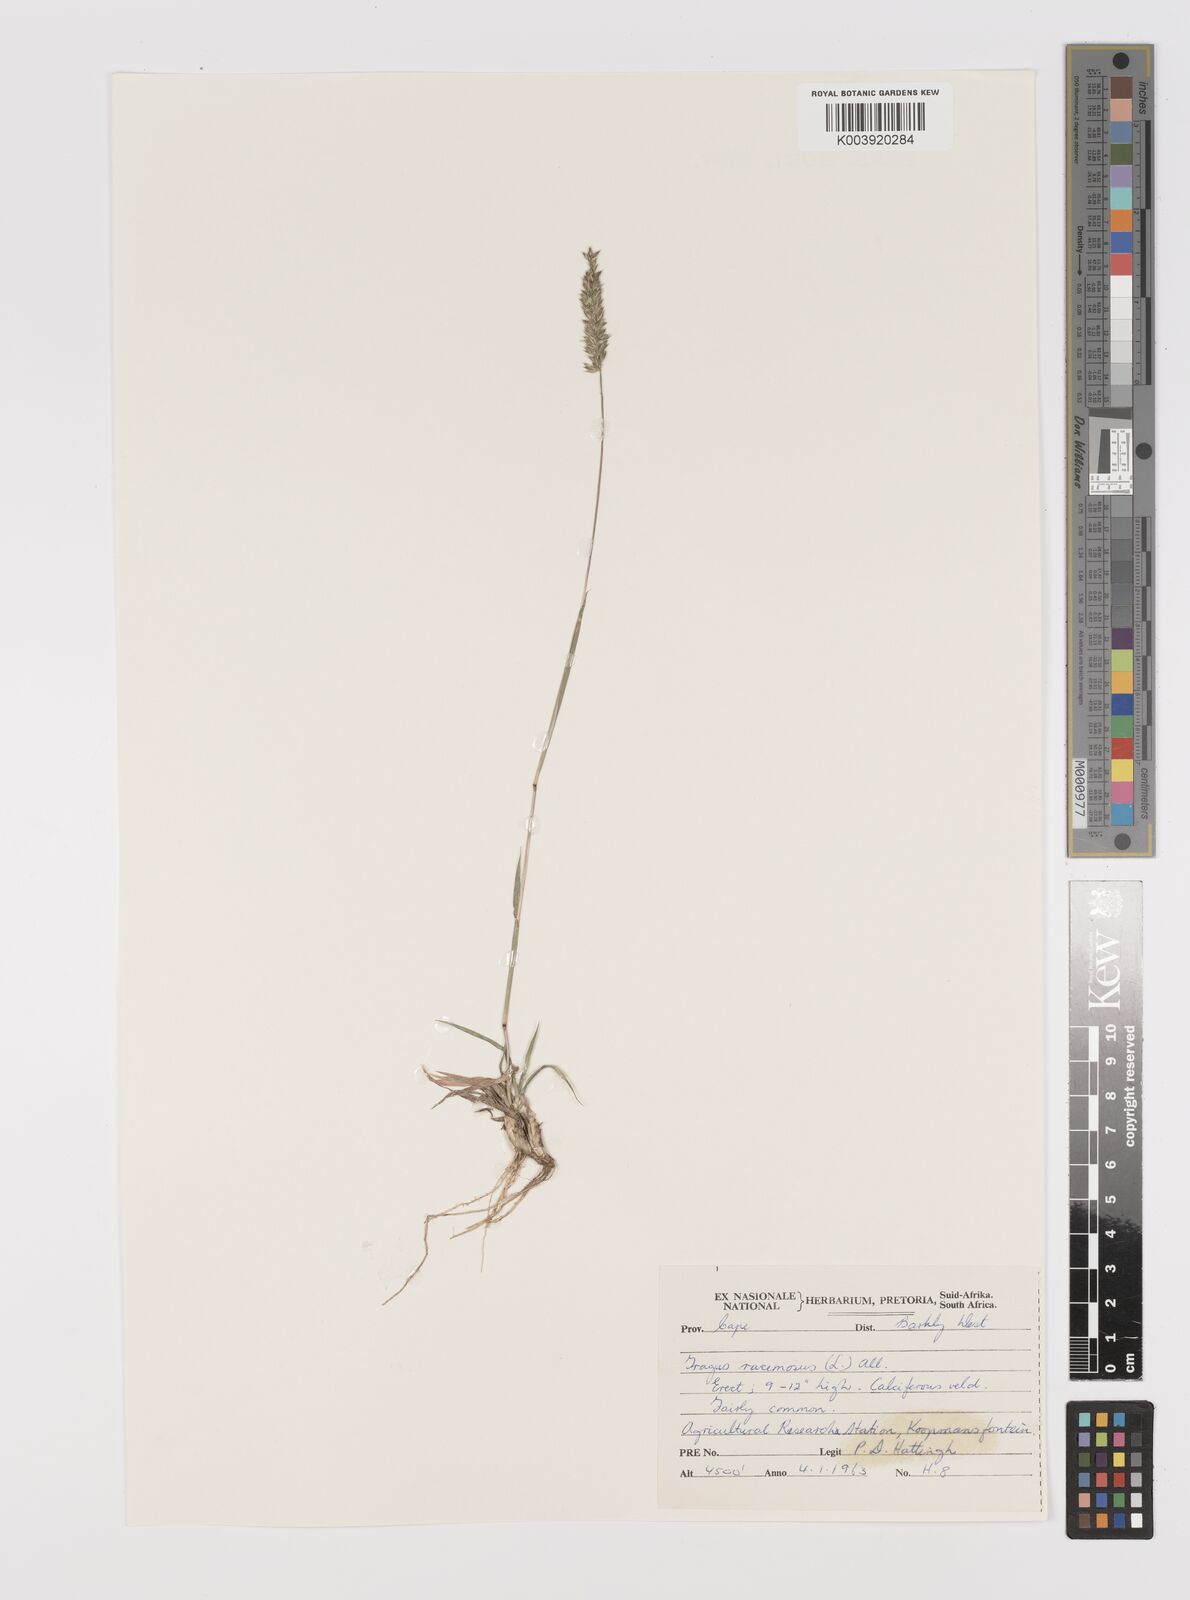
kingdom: Plantae
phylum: Tracheophyta
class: Liliopsida
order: Poales
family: Poaceae
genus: Tragus
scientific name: Tragus racemosus
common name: European bur-grass
